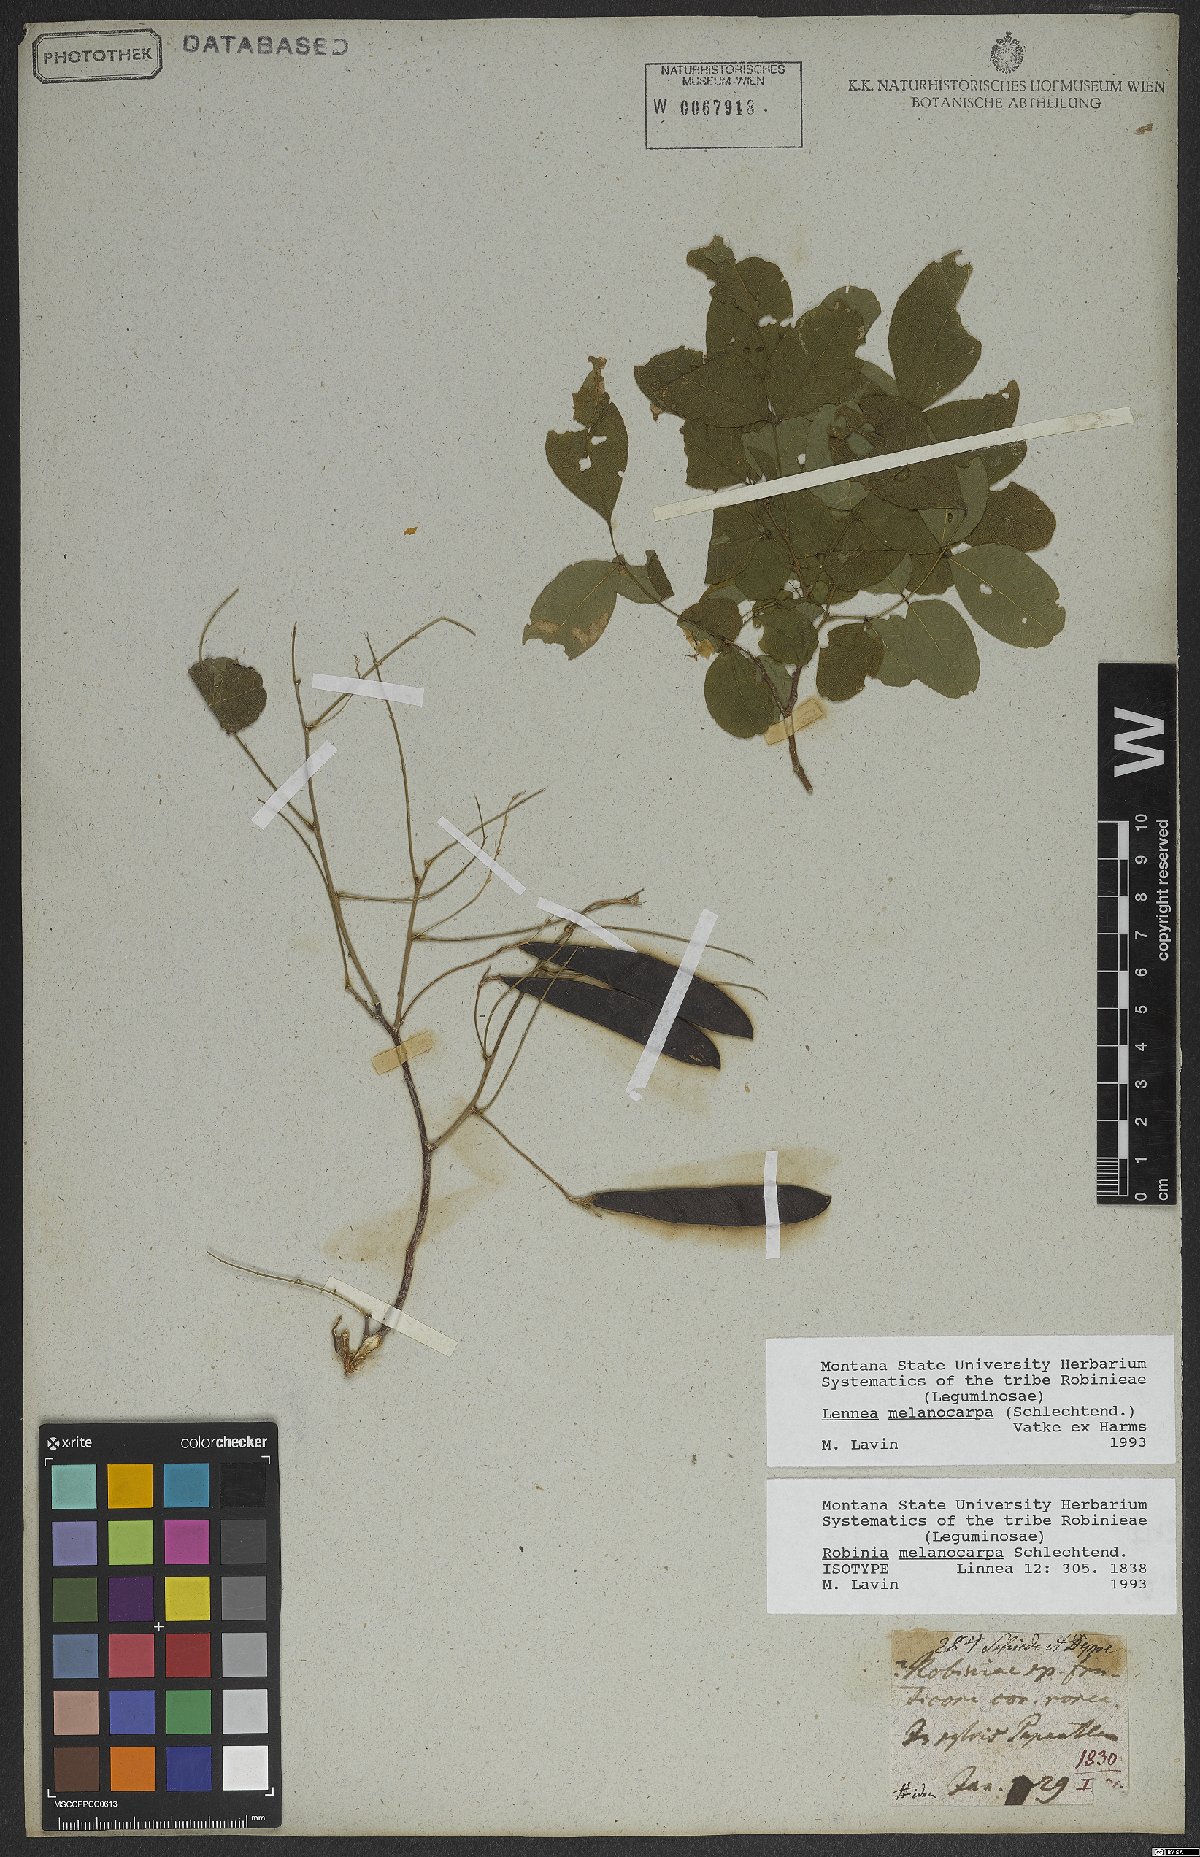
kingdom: Plantae
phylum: Tracheophyta
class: Magnoliopsida
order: Fabales
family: Fabaceae
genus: Lennea
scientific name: Lennea melanocarpa
